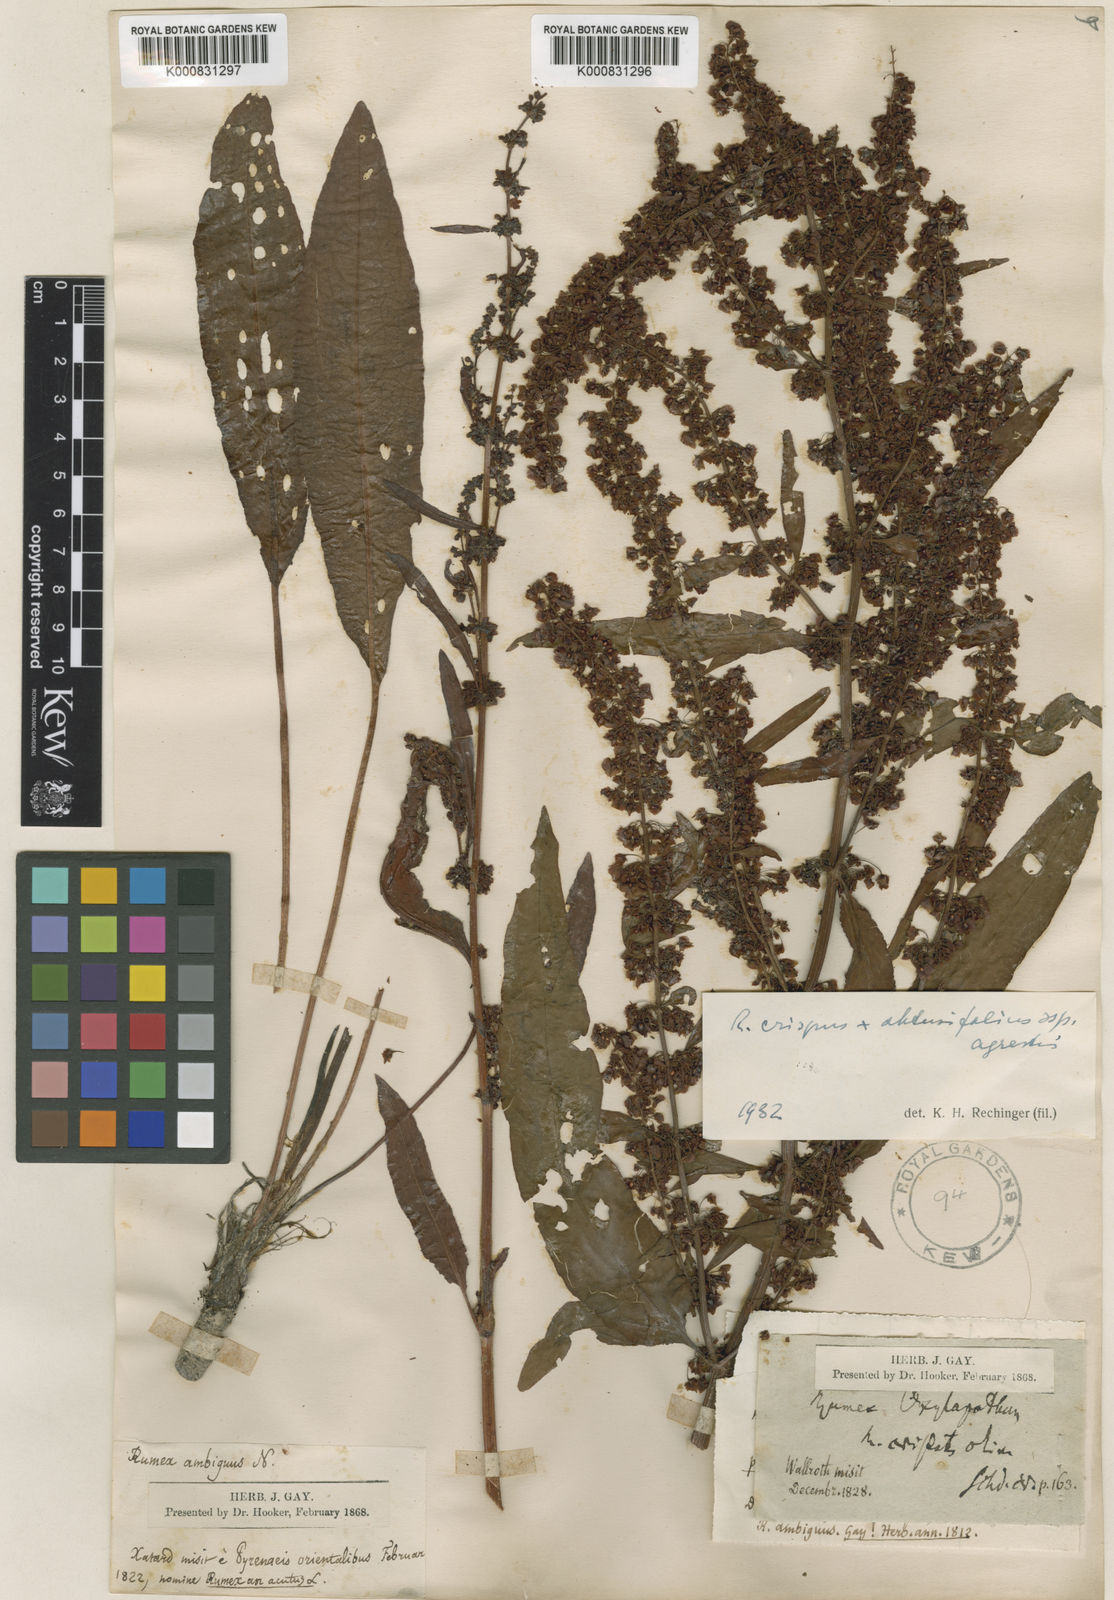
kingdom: Plantae
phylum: Tracheophyta
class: Magnoliopsida
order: Caryophyllales
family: Polygonaceae
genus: Rumex
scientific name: Rumex crispus
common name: Curled dock
